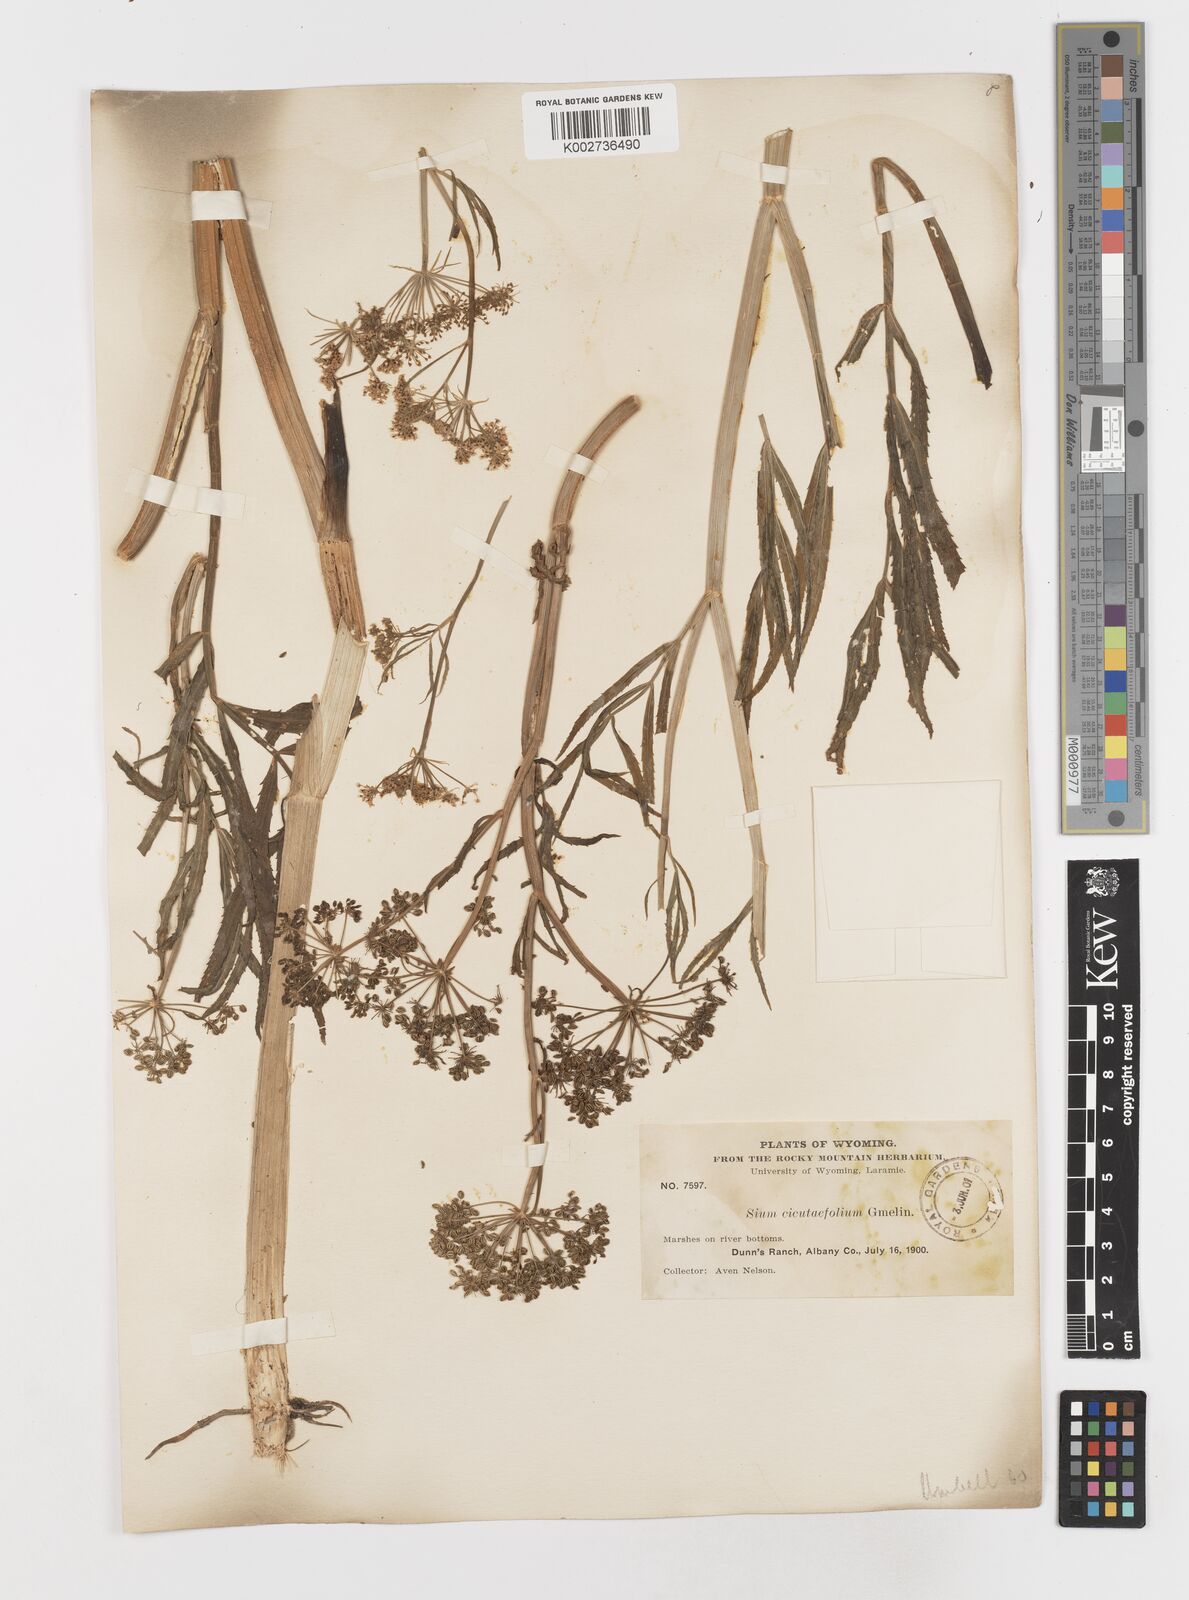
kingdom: Plantae
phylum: Tracheophyta
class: Magnoliopsida
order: Apiales
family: Apiaceae
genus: Sium
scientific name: Sium suave
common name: Hemlock water-parsnip
